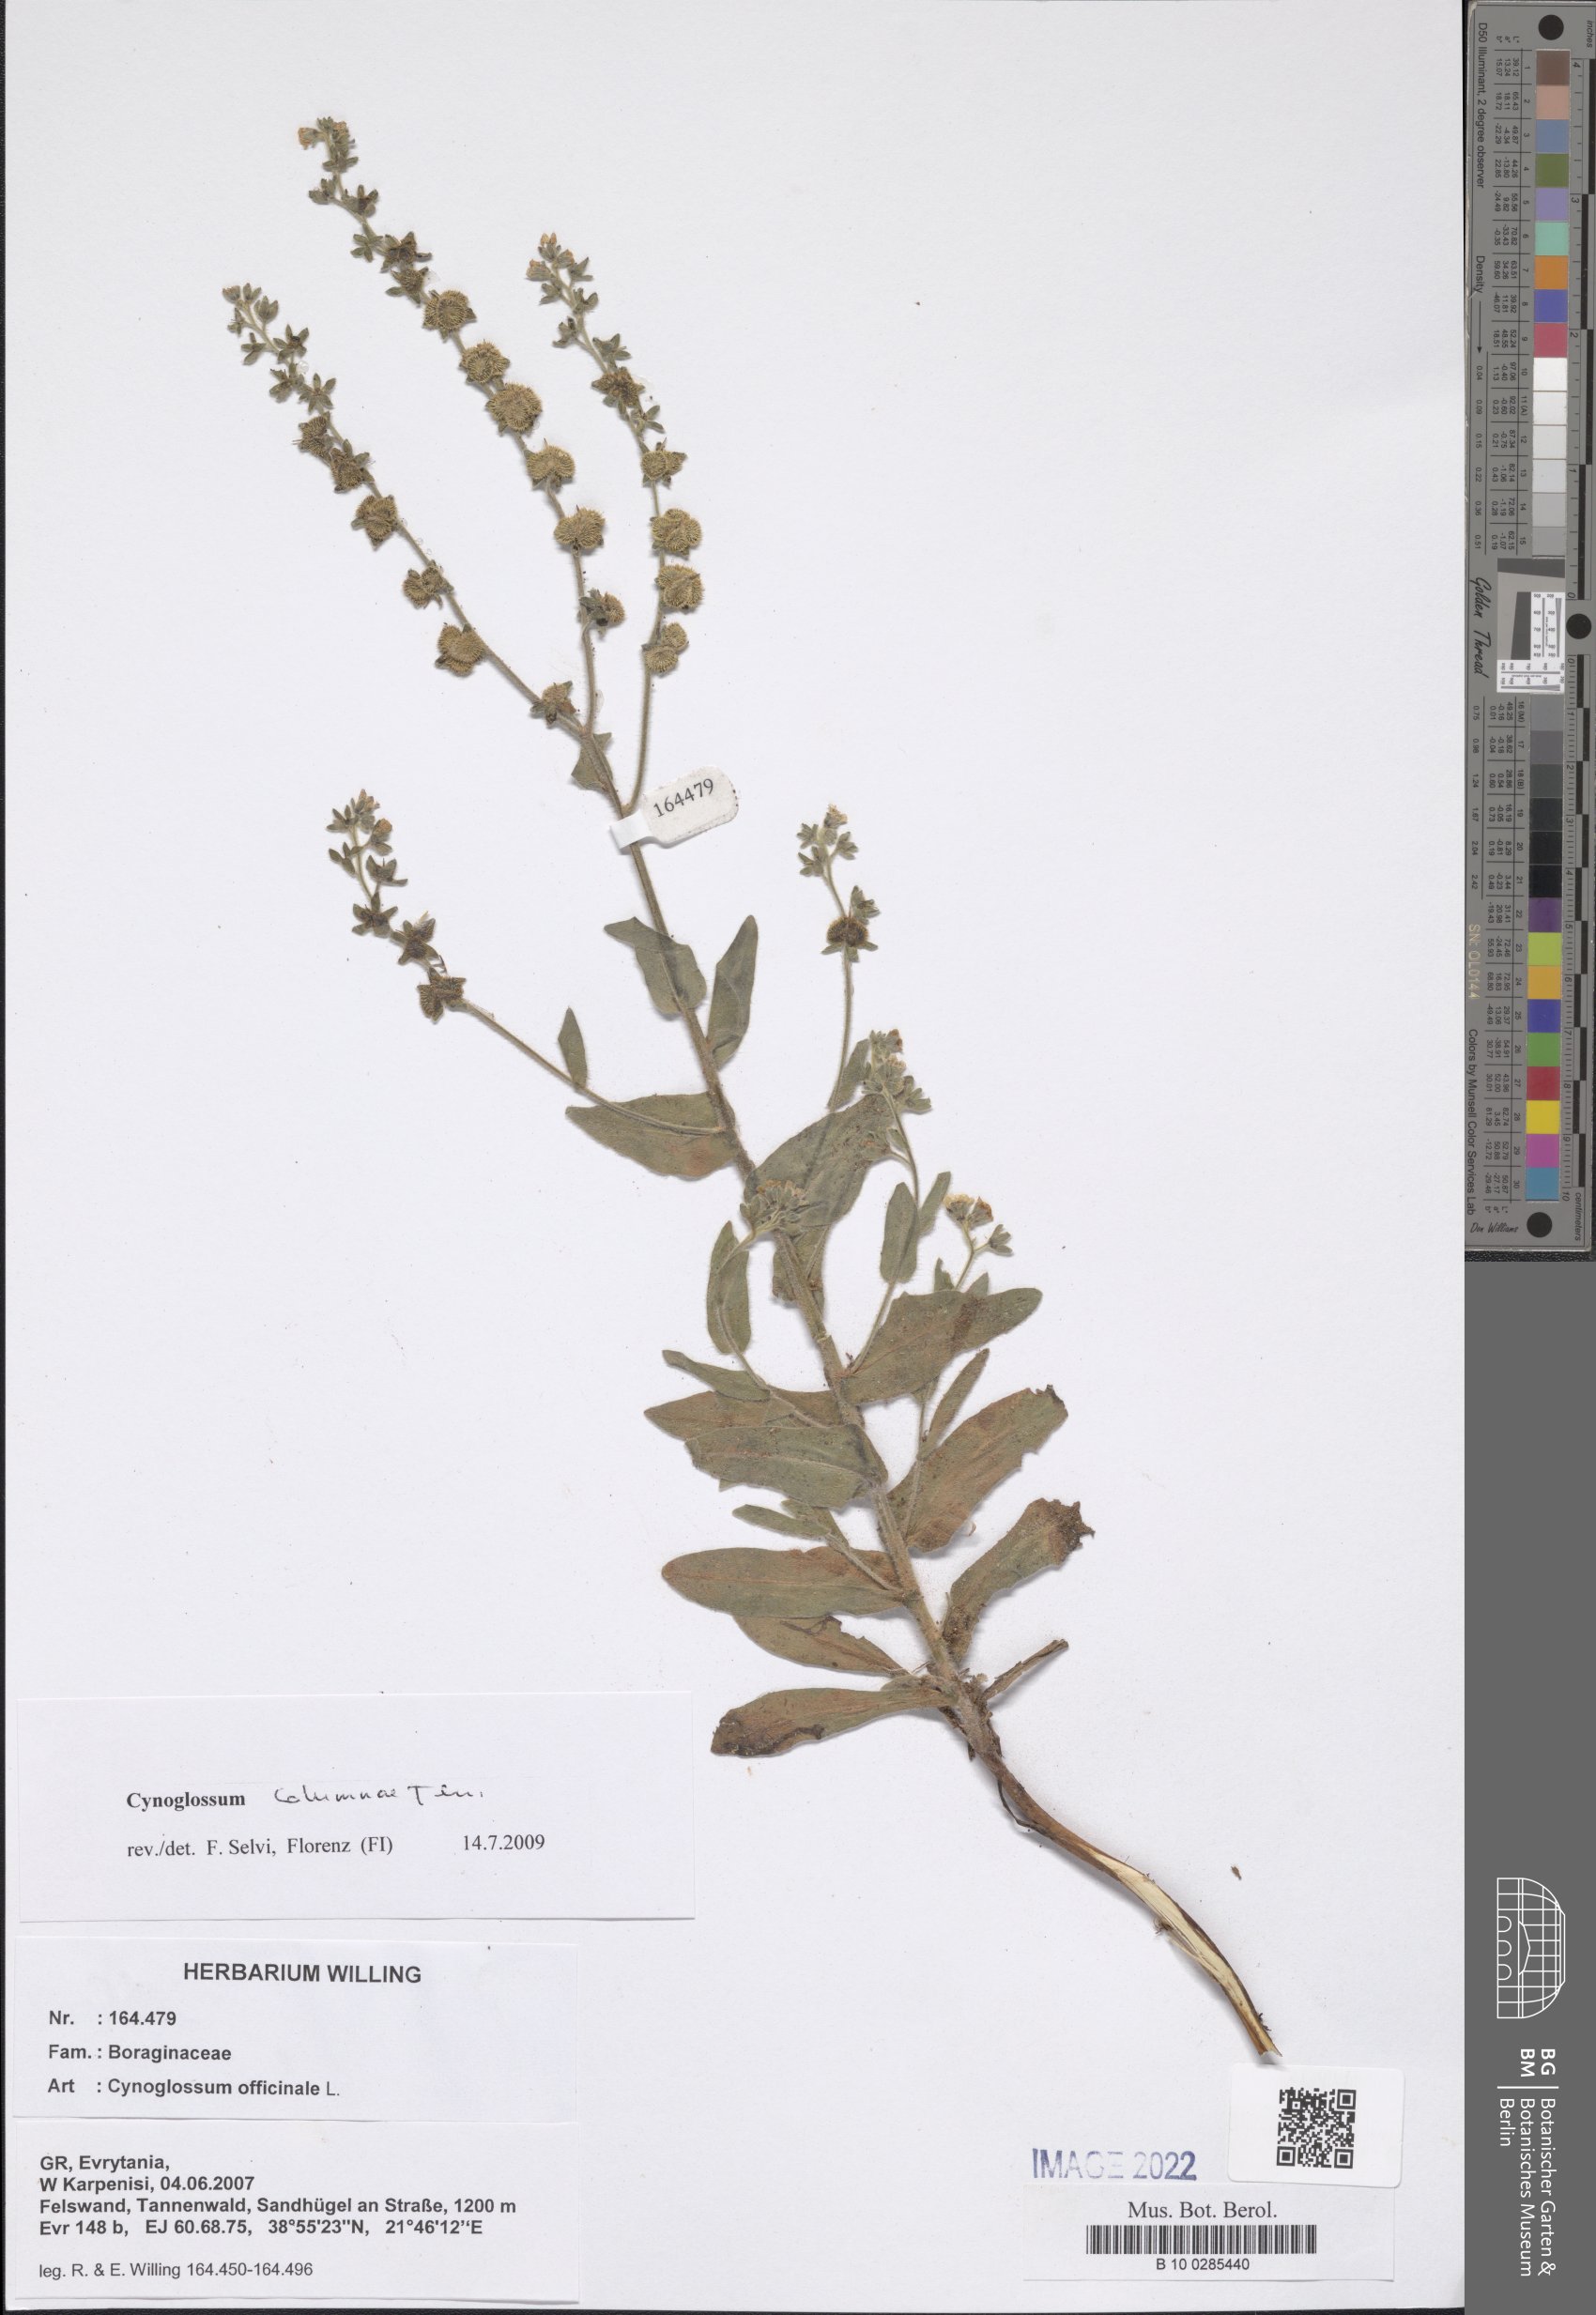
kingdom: Plantae
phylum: Tracheophyta
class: Magnoliopsida
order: Boraginales
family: Boraginaceae
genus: Rindera
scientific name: Rindera columnae
